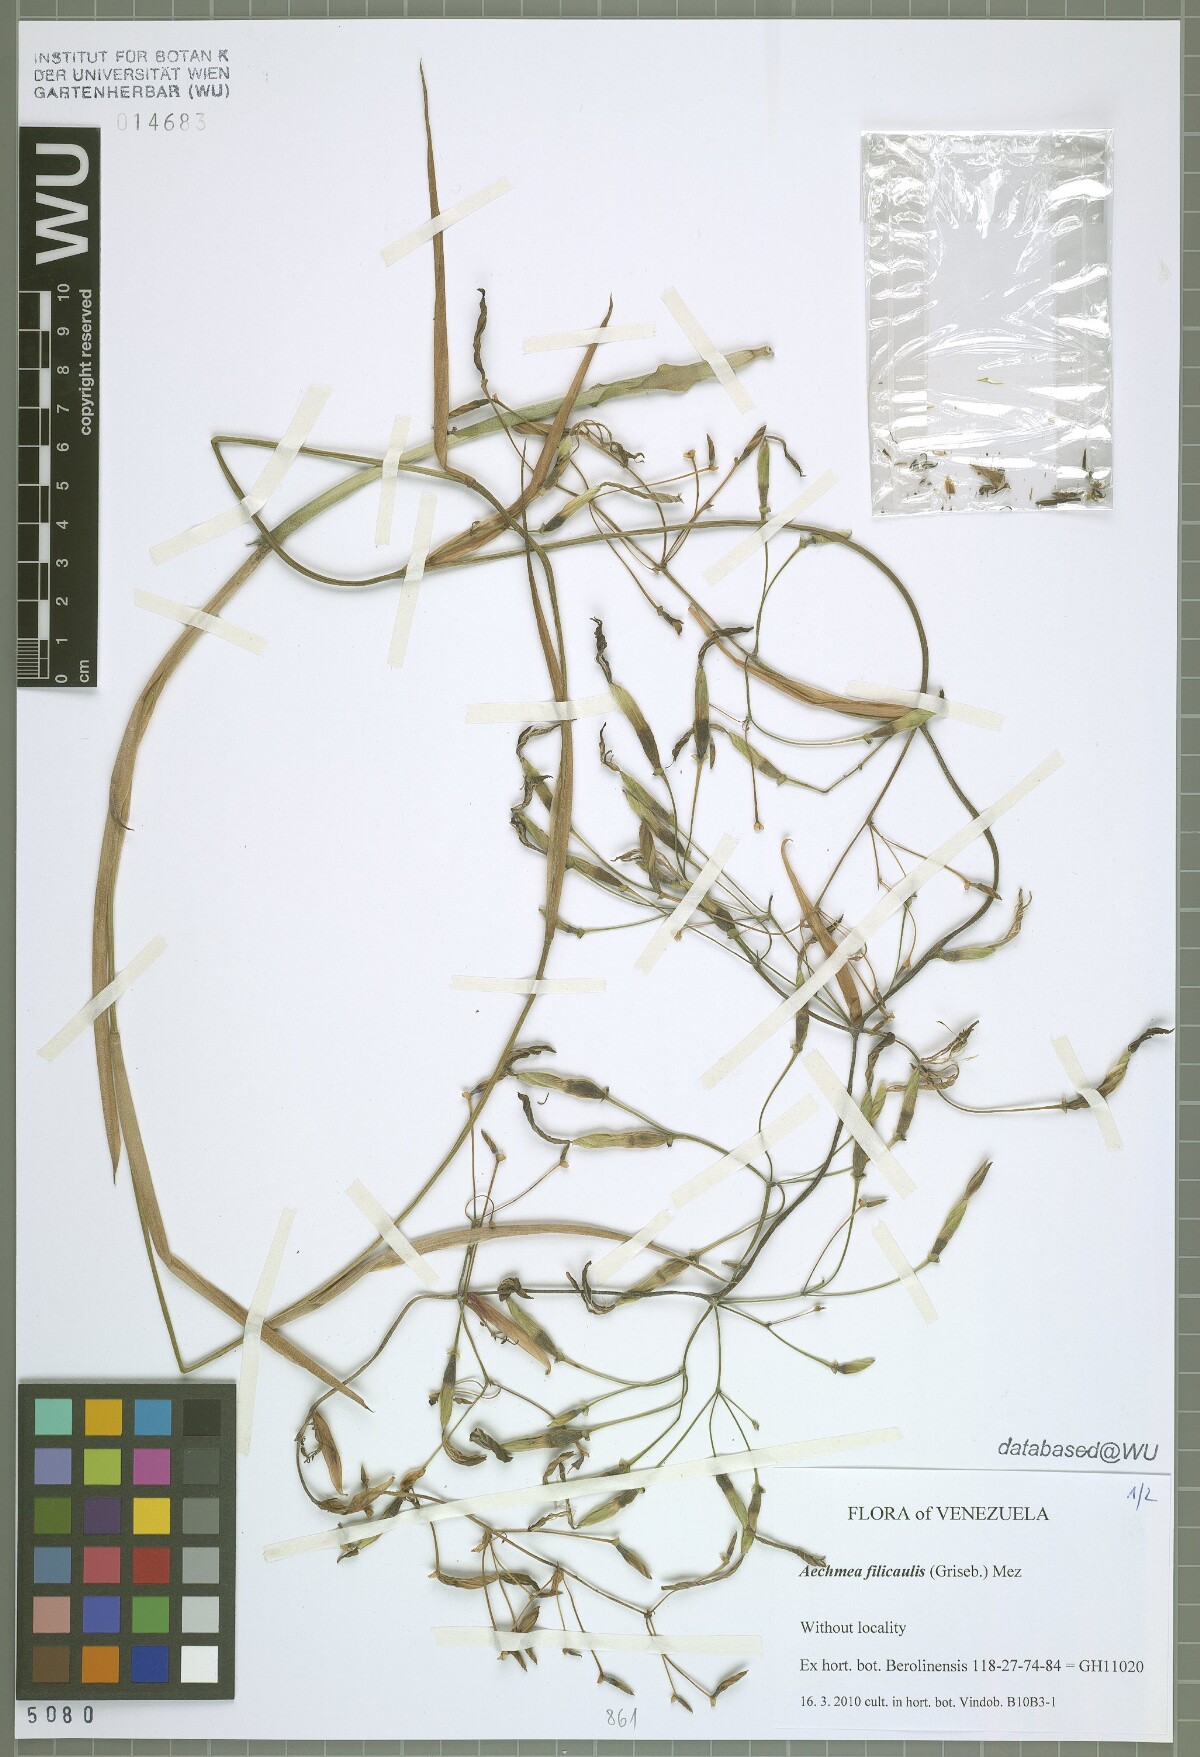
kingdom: Plantae
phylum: Tracheophyta
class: Liliopsida
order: Poales
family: Bromeliaceae
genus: Aechmea
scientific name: Aechmea filicaulis
